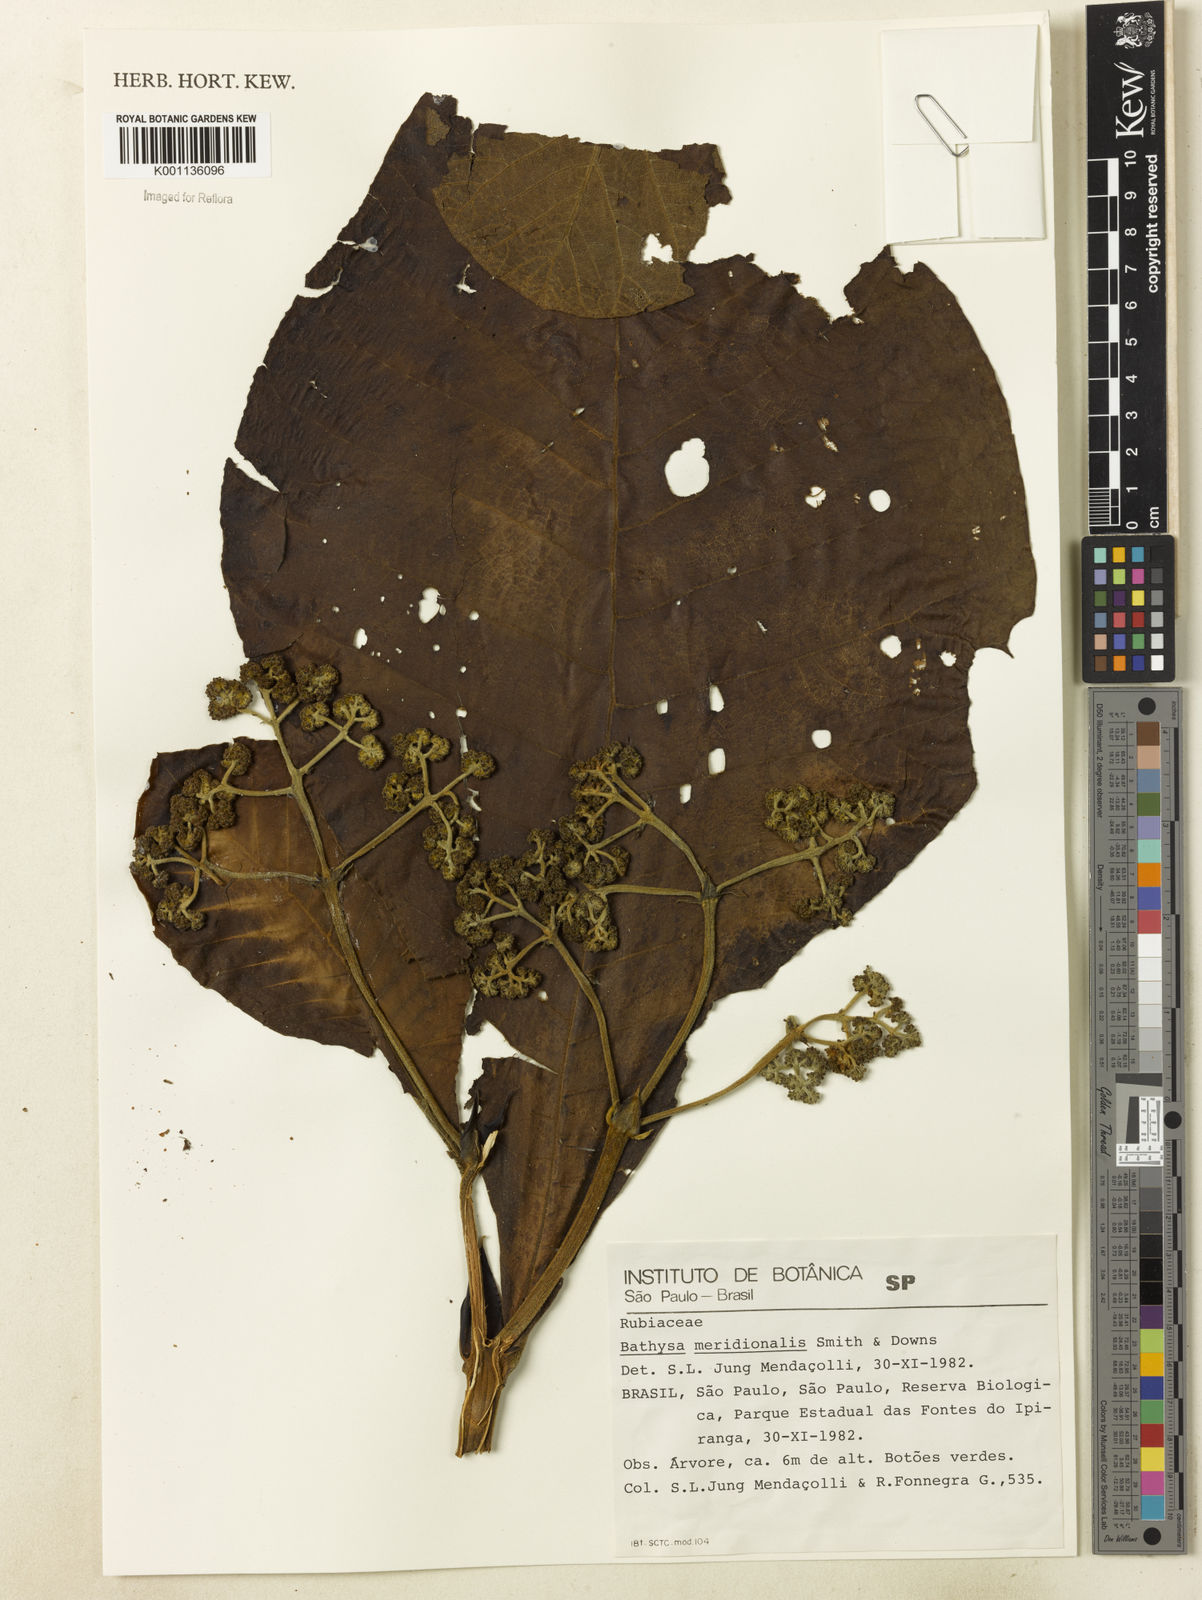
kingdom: Plantae
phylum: Tracheophyta
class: Magnoliopsida
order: Gentianales
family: Rubiaceae
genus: Bathysa
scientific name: Bathysa australis
